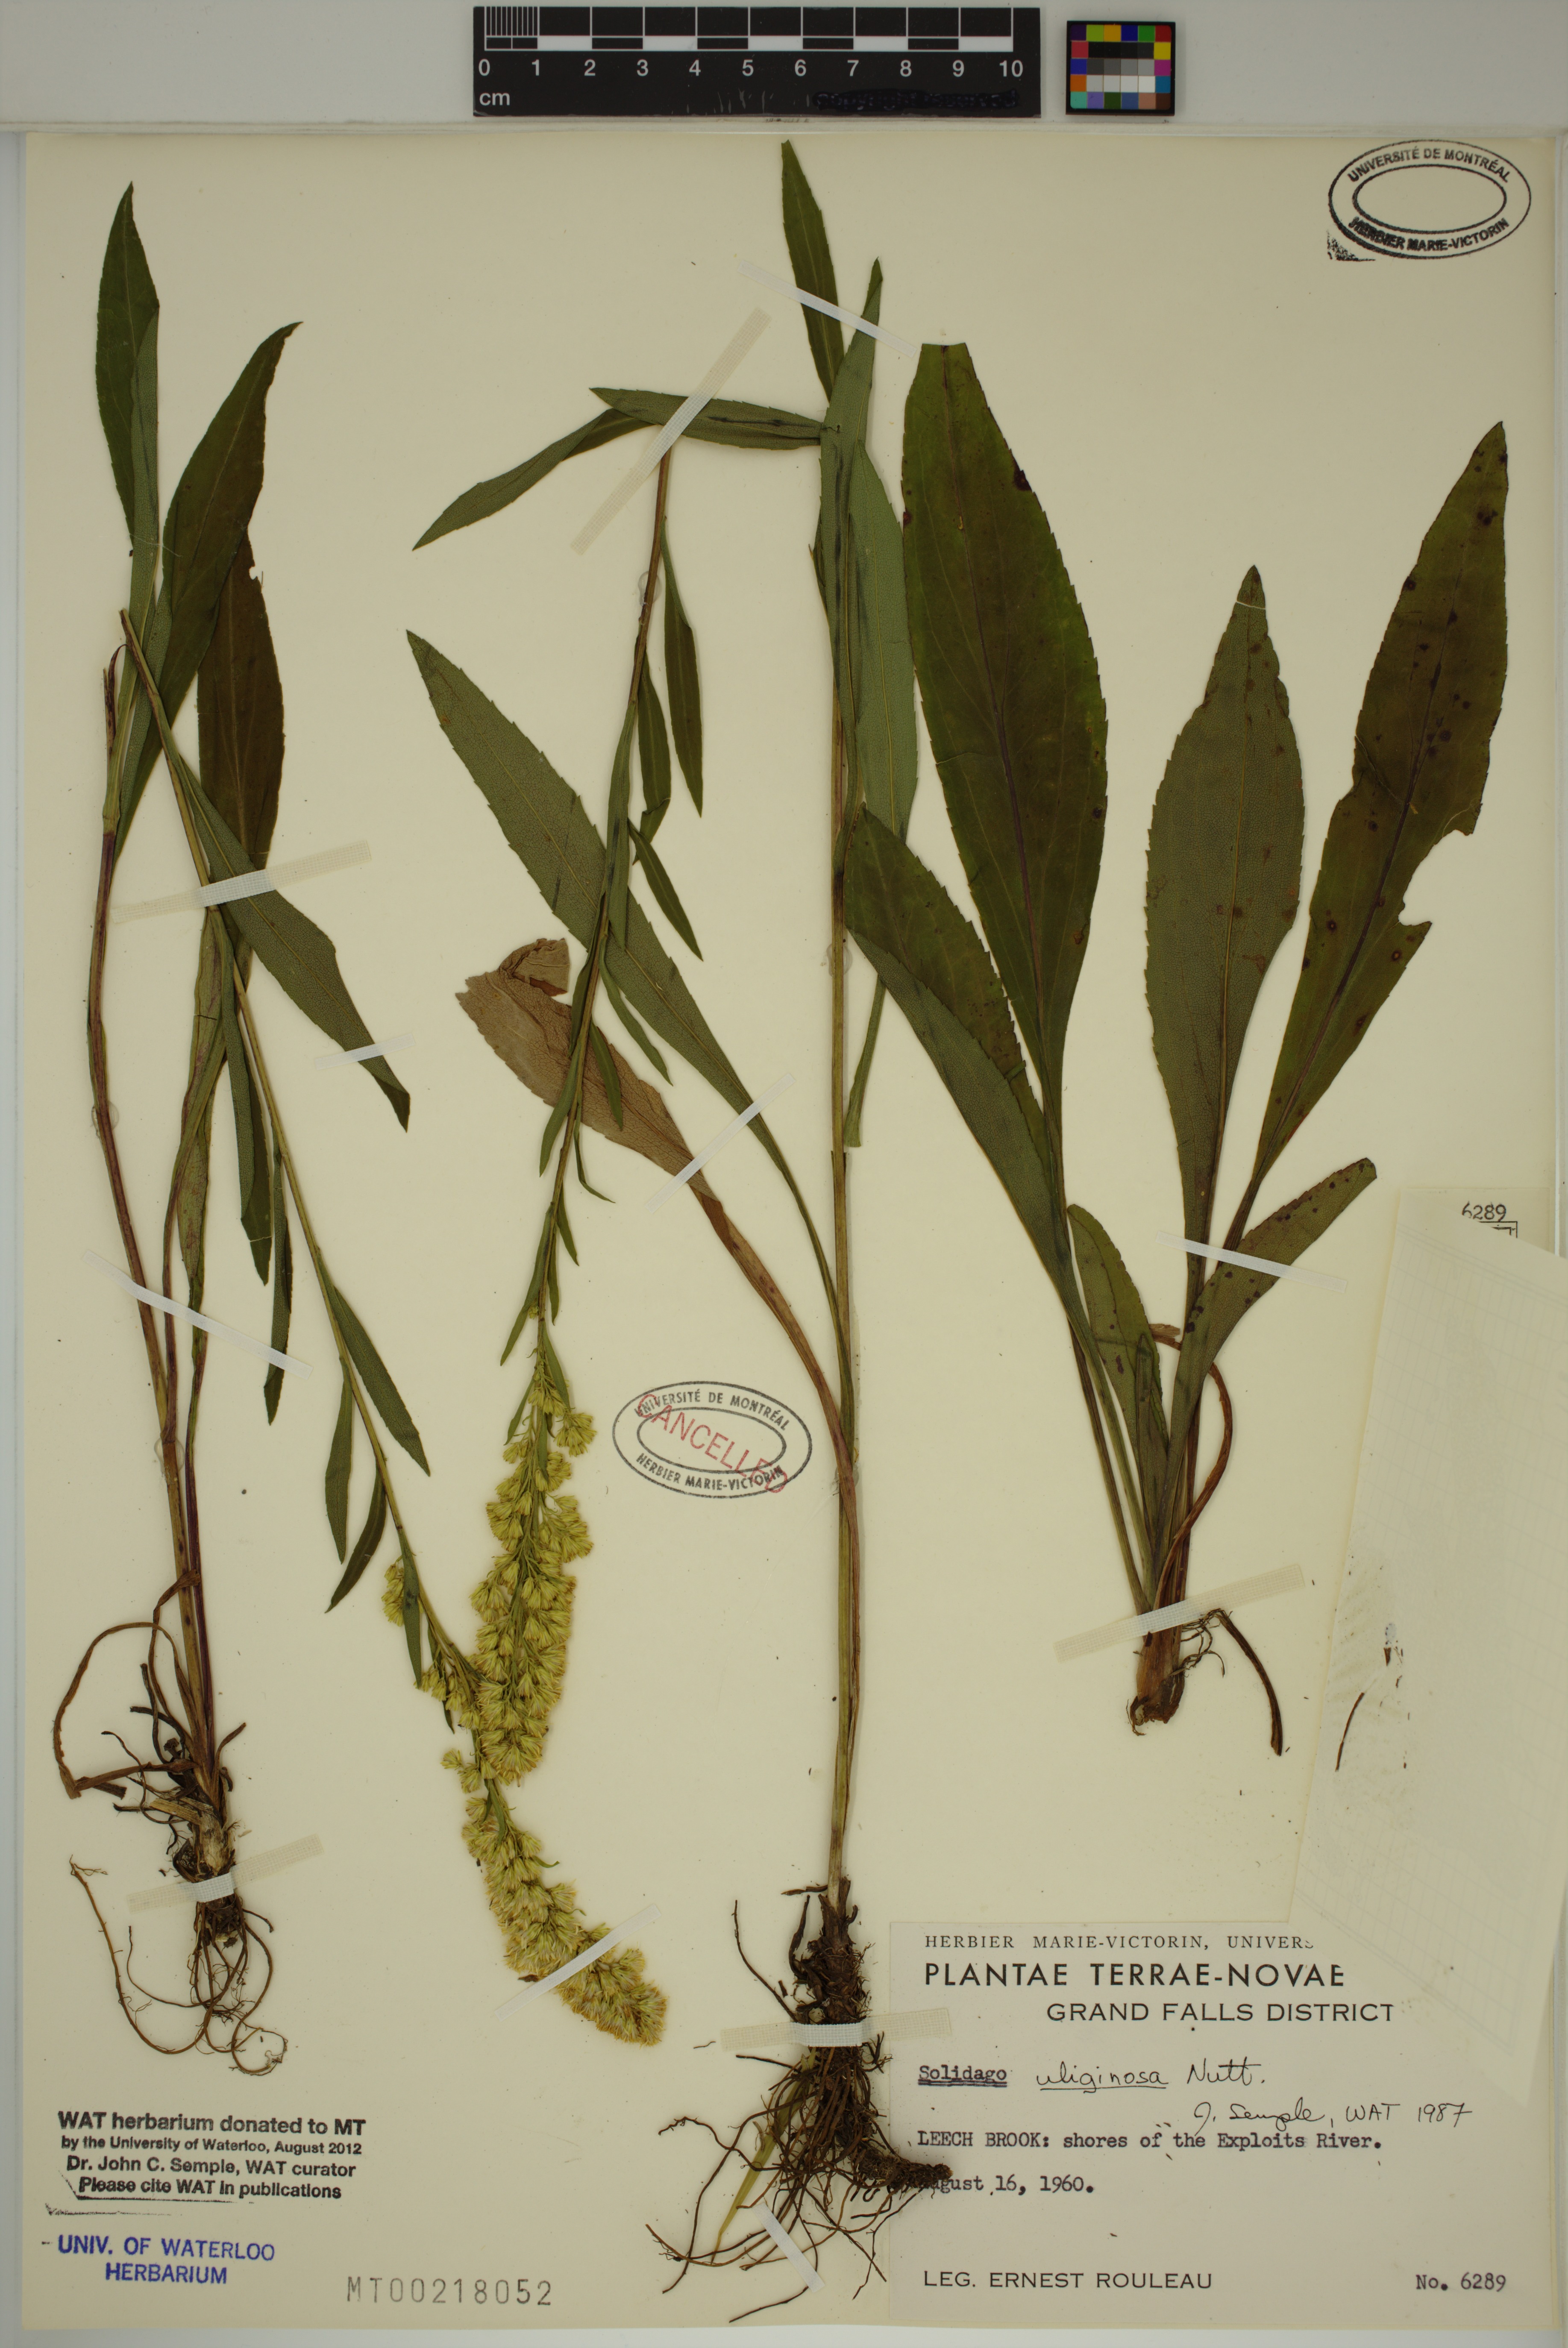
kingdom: Plantae
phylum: Tracheophyta
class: Magnoliopsida
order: Asterales
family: Asteraceae
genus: Solidago
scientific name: Solidago uliginosa
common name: Bog goldenrod
